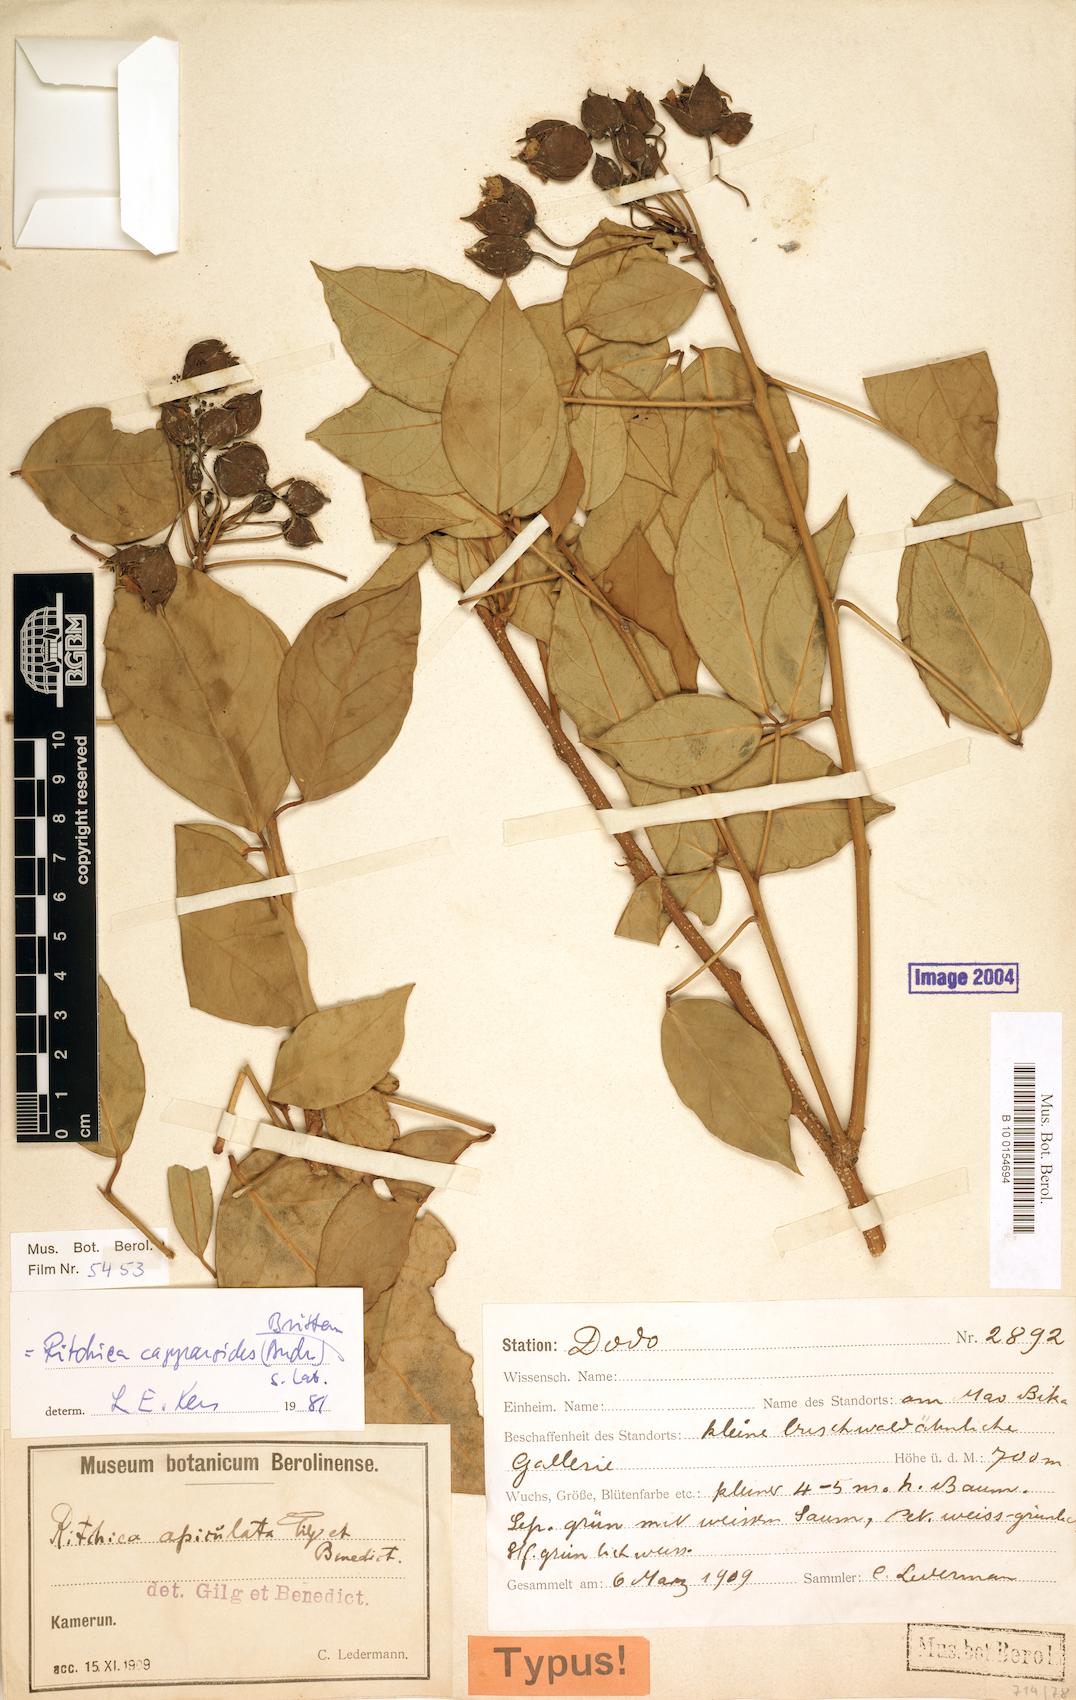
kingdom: Plantae
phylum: Tracheophyta
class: Magnoliopsida
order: Brassicales
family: Capparaceae
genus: Ritchiea
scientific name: Ritchiea capparoides
